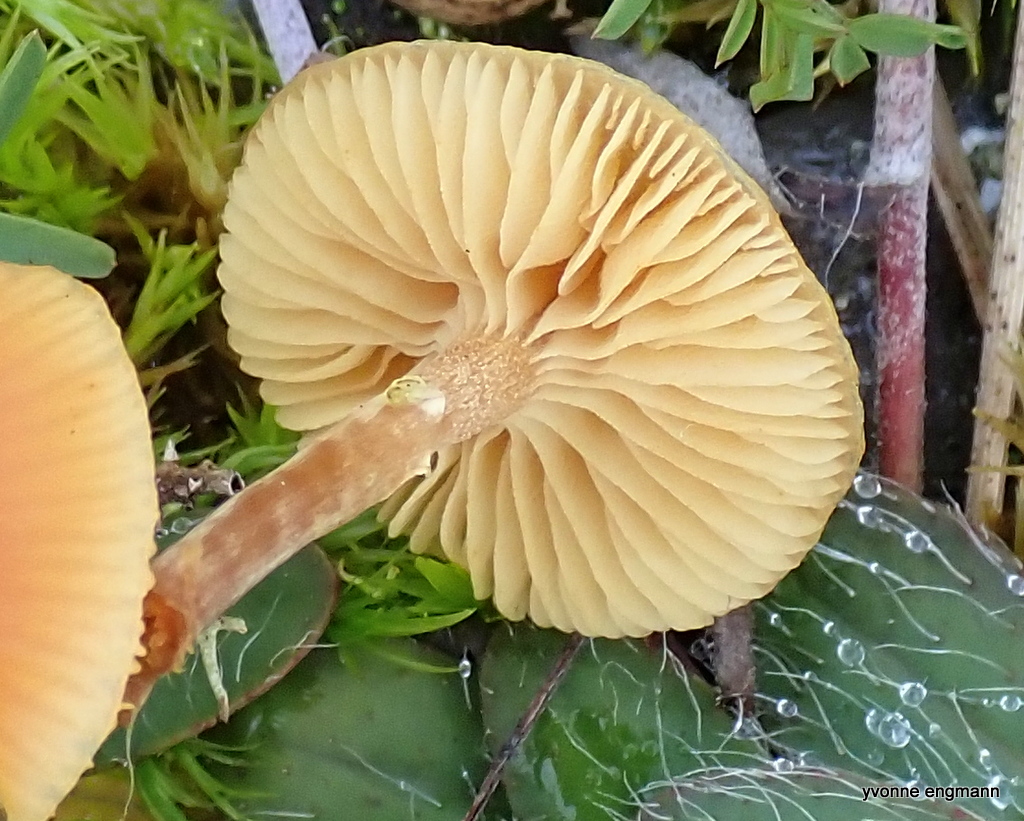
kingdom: Fungi
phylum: Basidiomycota
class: Agaricomycetes
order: Agaricales
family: Hymenogastraceae
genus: Galerina
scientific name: Galerina
